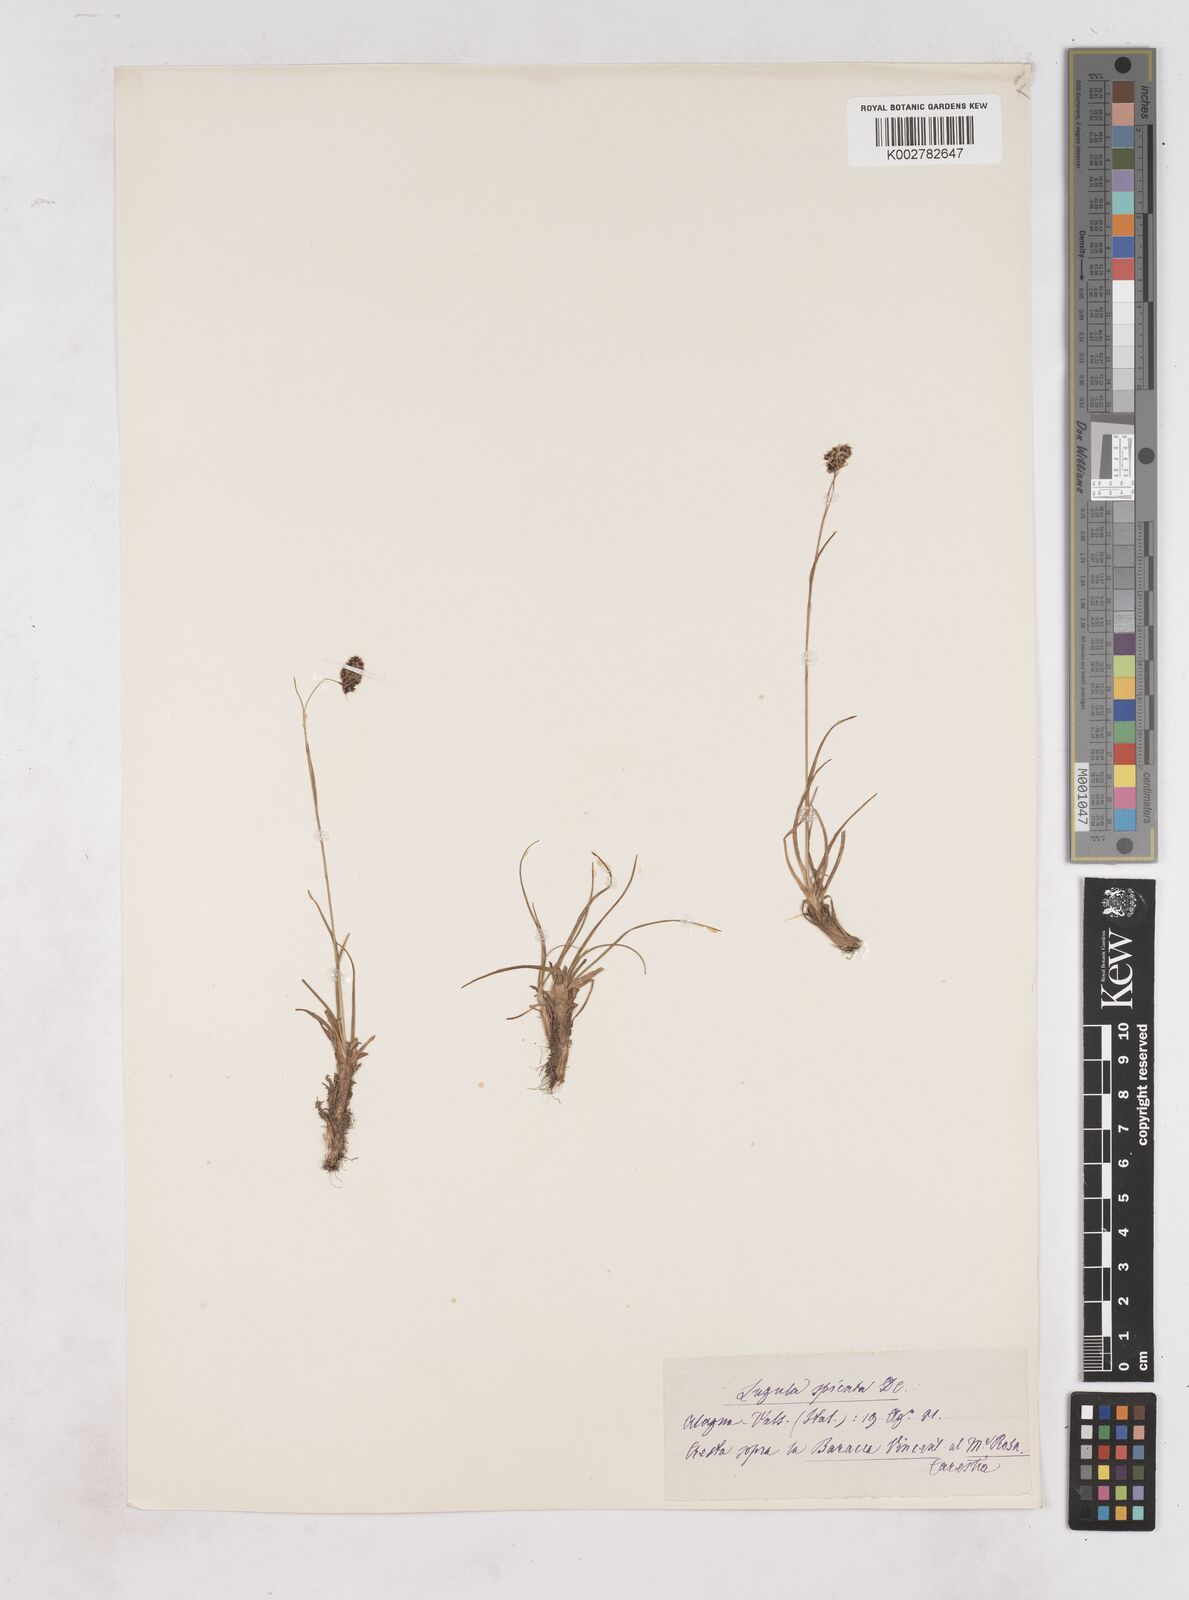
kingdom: Plantae
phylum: Tracheophyta
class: Liliopsida
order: Poales
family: Juncaceae
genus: Luzula
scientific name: Luzula spicata
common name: Spiked wood-rush
